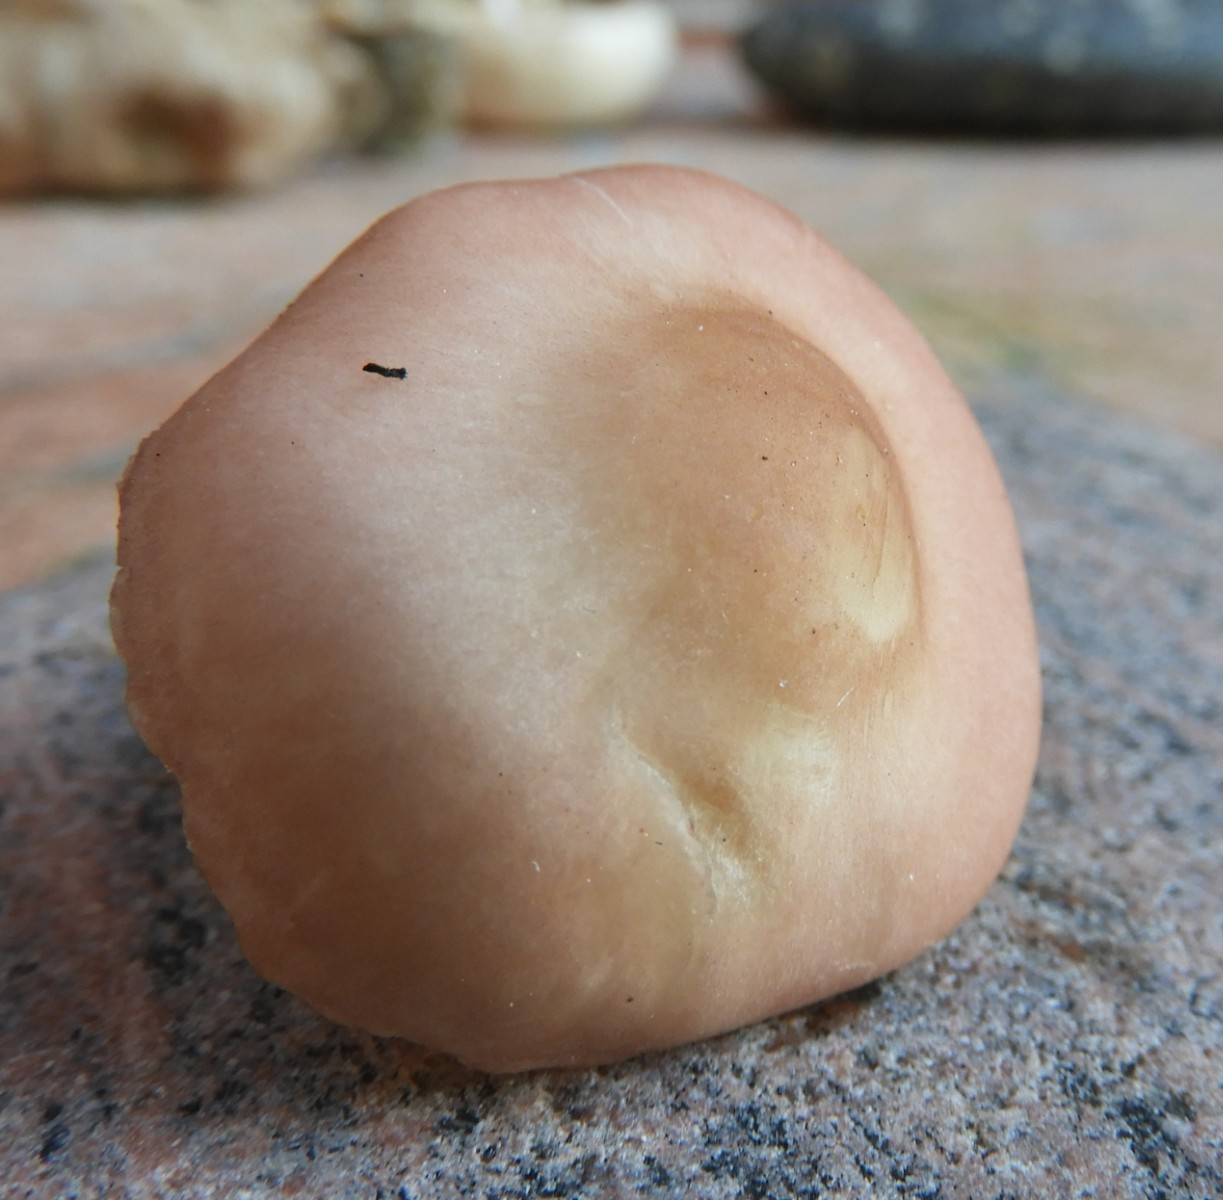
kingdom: Fungi
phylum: Basidiomycota
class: Agaricomycetes
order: Agaricales
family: Lyophyllaceae
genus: Calocybe
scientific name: Calocybe carnea
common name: rosa fagerhat
